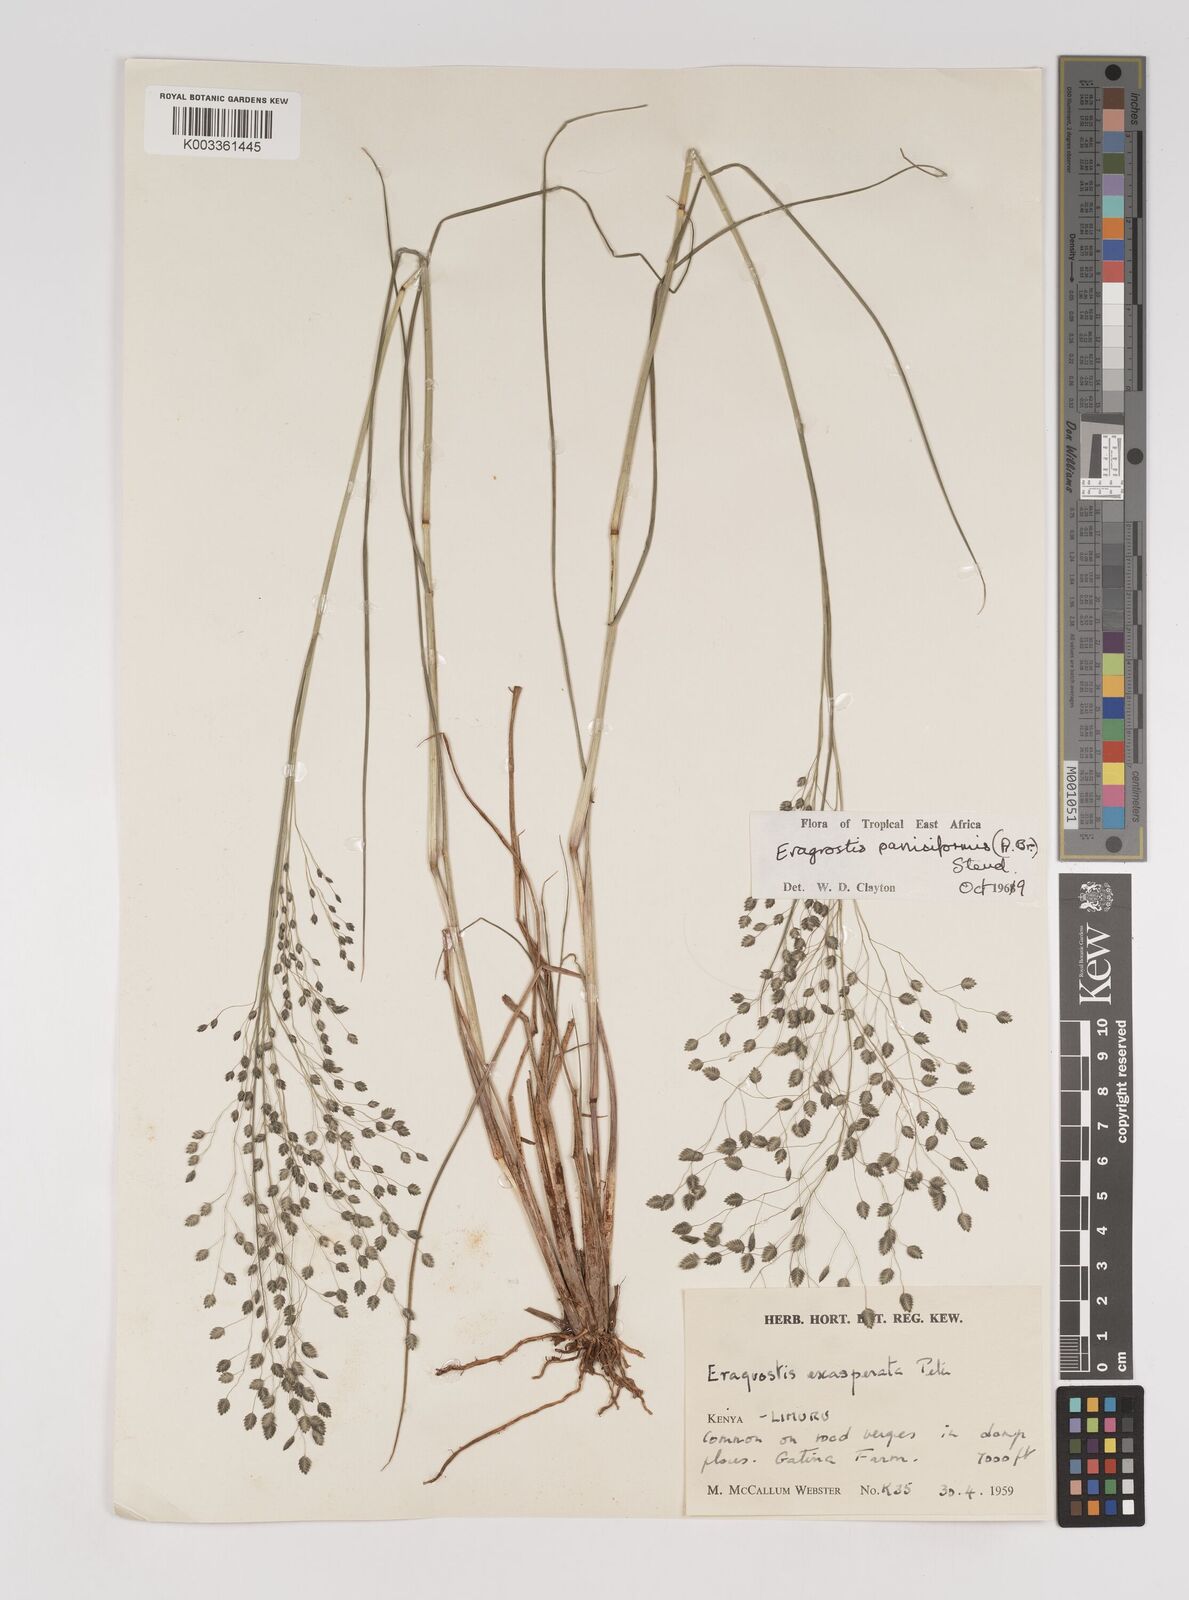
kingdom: Plantae
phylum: Tracheophyta
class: Liliopsida
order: Poales
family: Poaceae
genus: Eragrostis
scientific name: Eragrostis paniciformis
